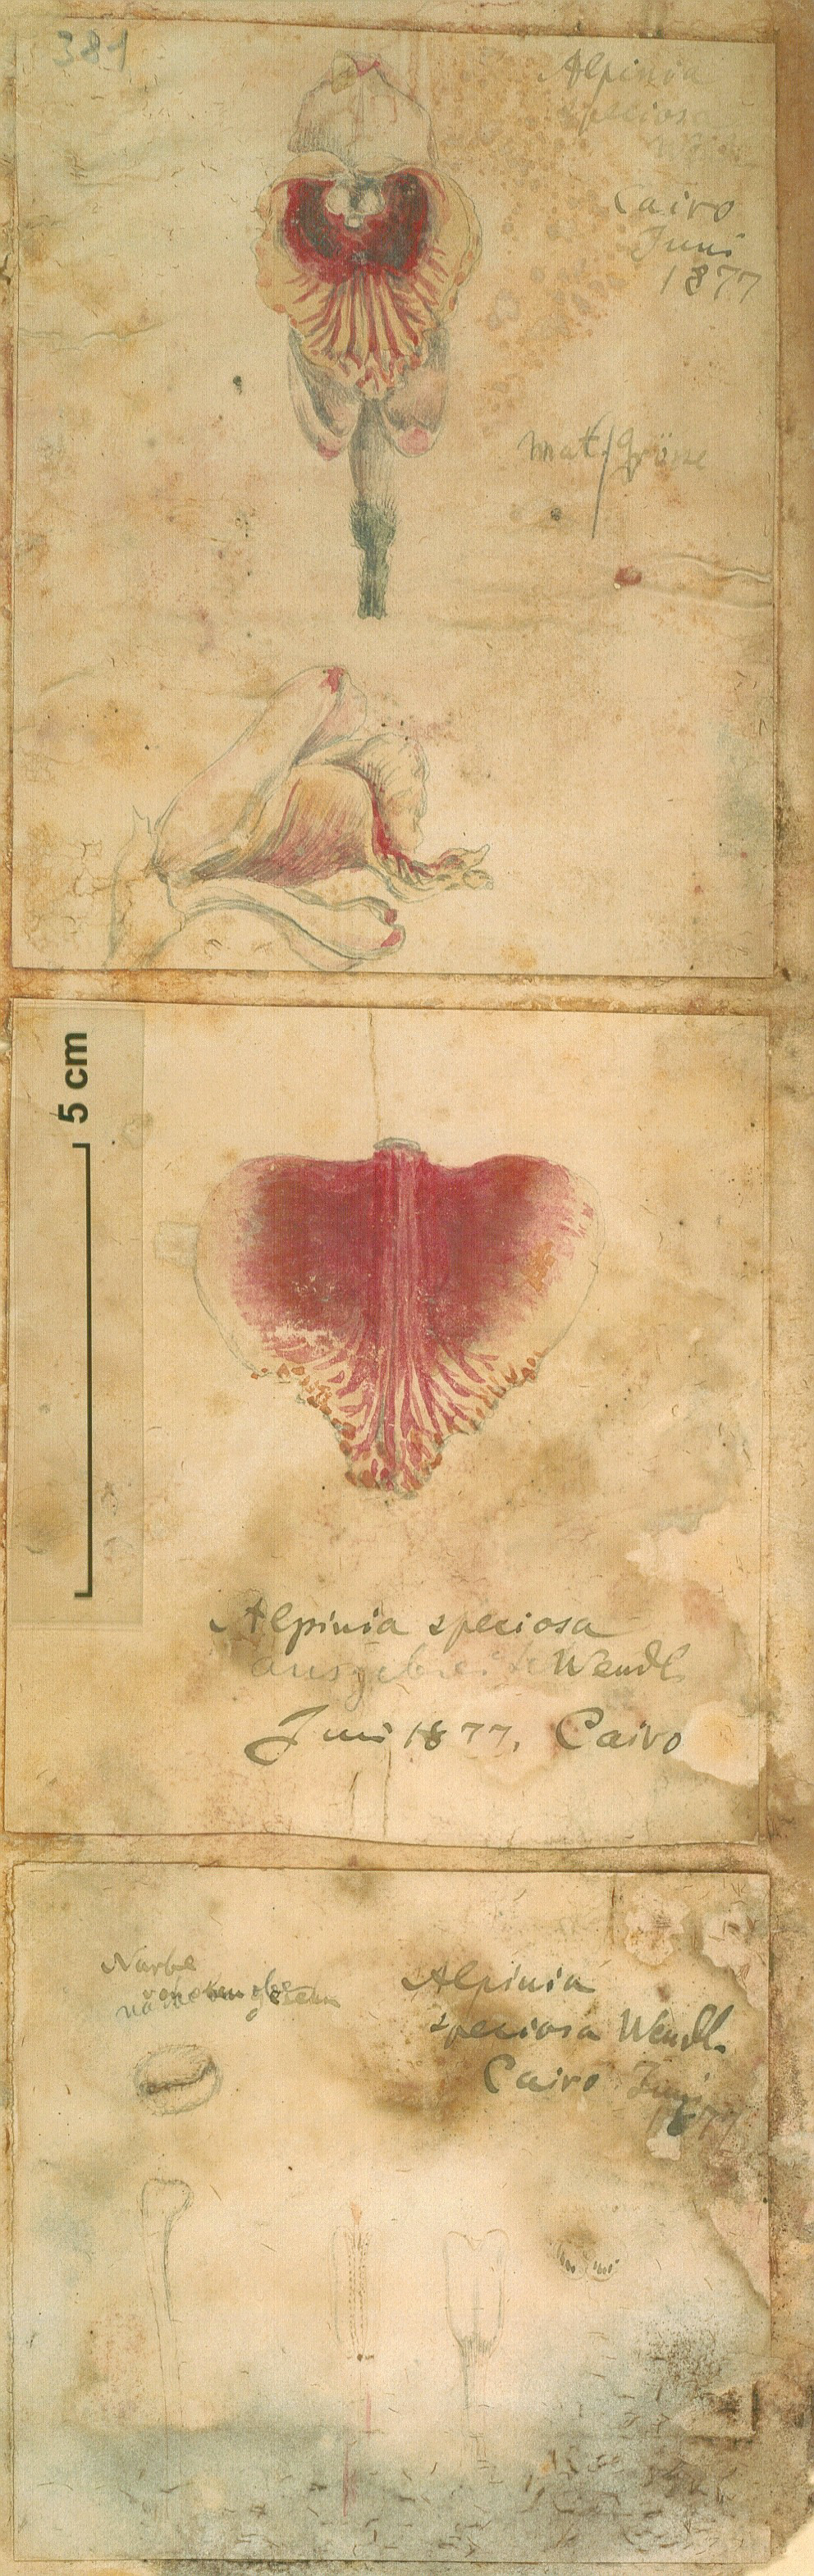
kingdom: Plantae
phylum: Tracheophyta
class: Liliopsida
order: Zingiberales
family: Zingiberaceae
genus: Alpinia
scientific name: Alpinia zerumbet
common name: Shellplant
